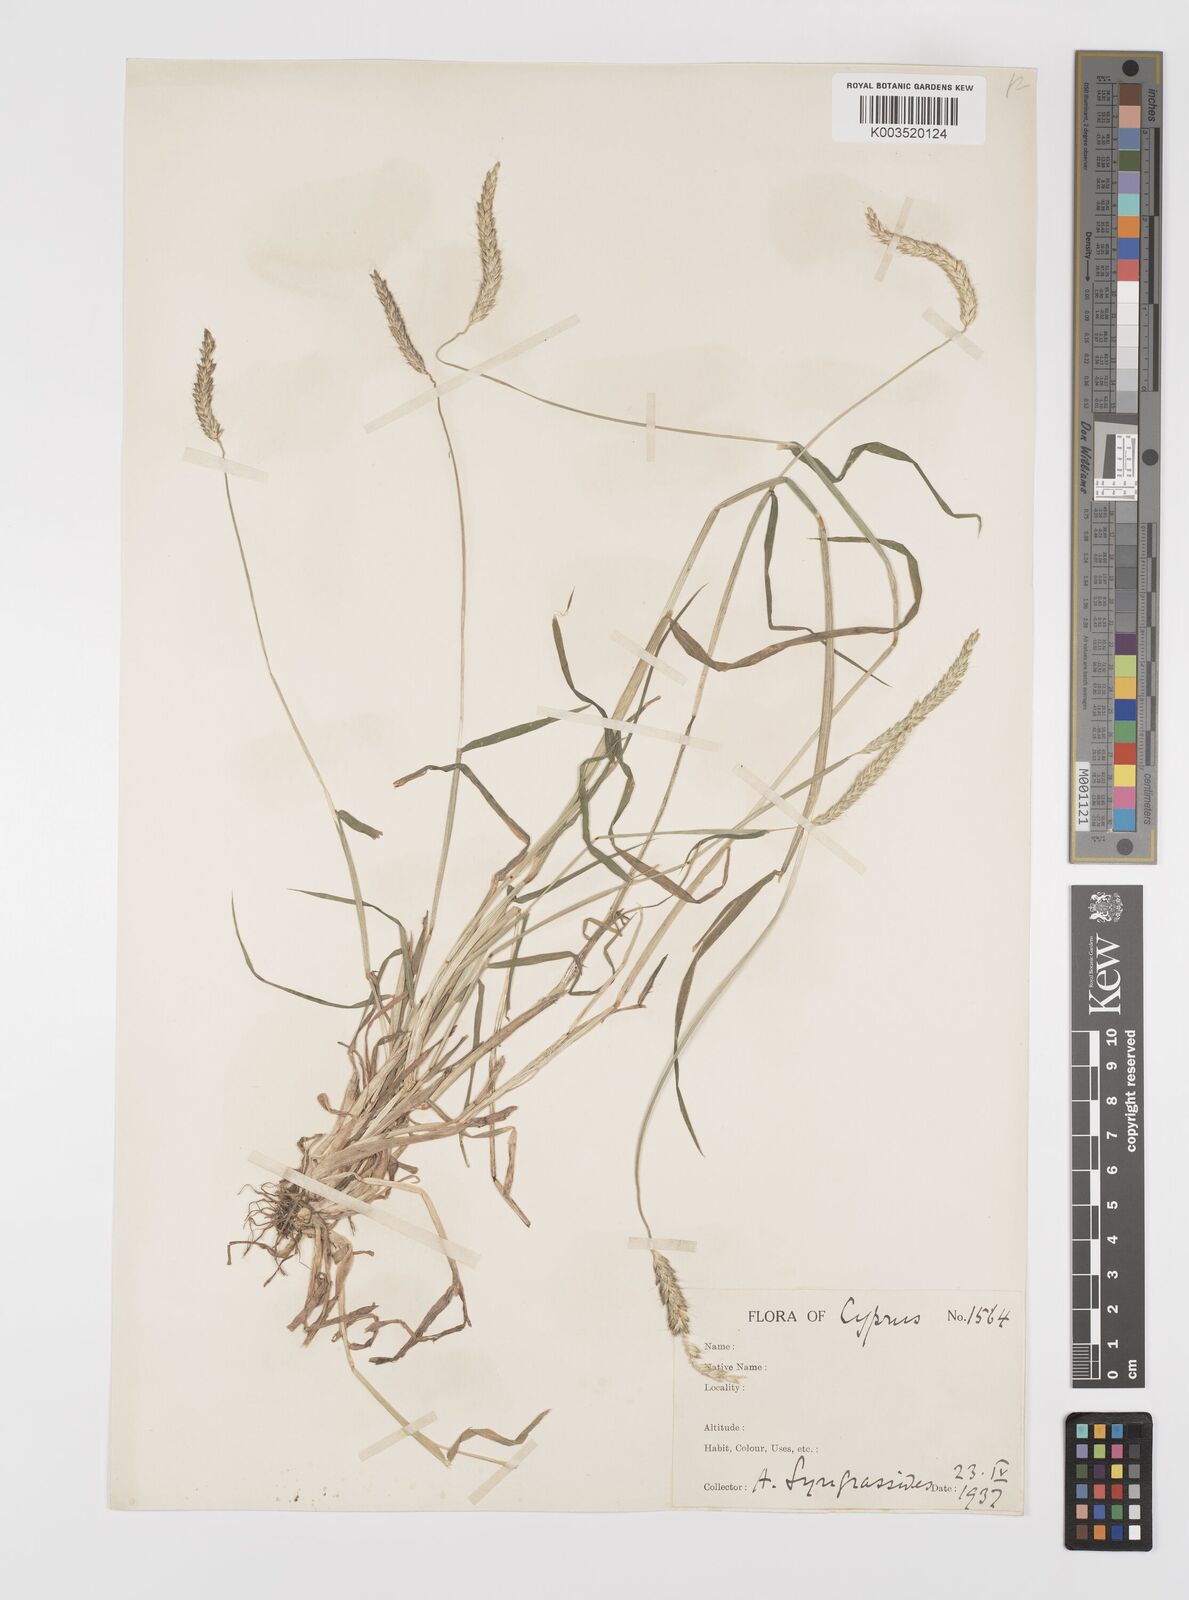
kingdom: Plantae
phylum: Tracheophyta
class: Liliopsida
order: Poales
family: Poaceae
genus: Alopecurus
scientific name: Alopecurus myosuroides
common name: Black-grass
